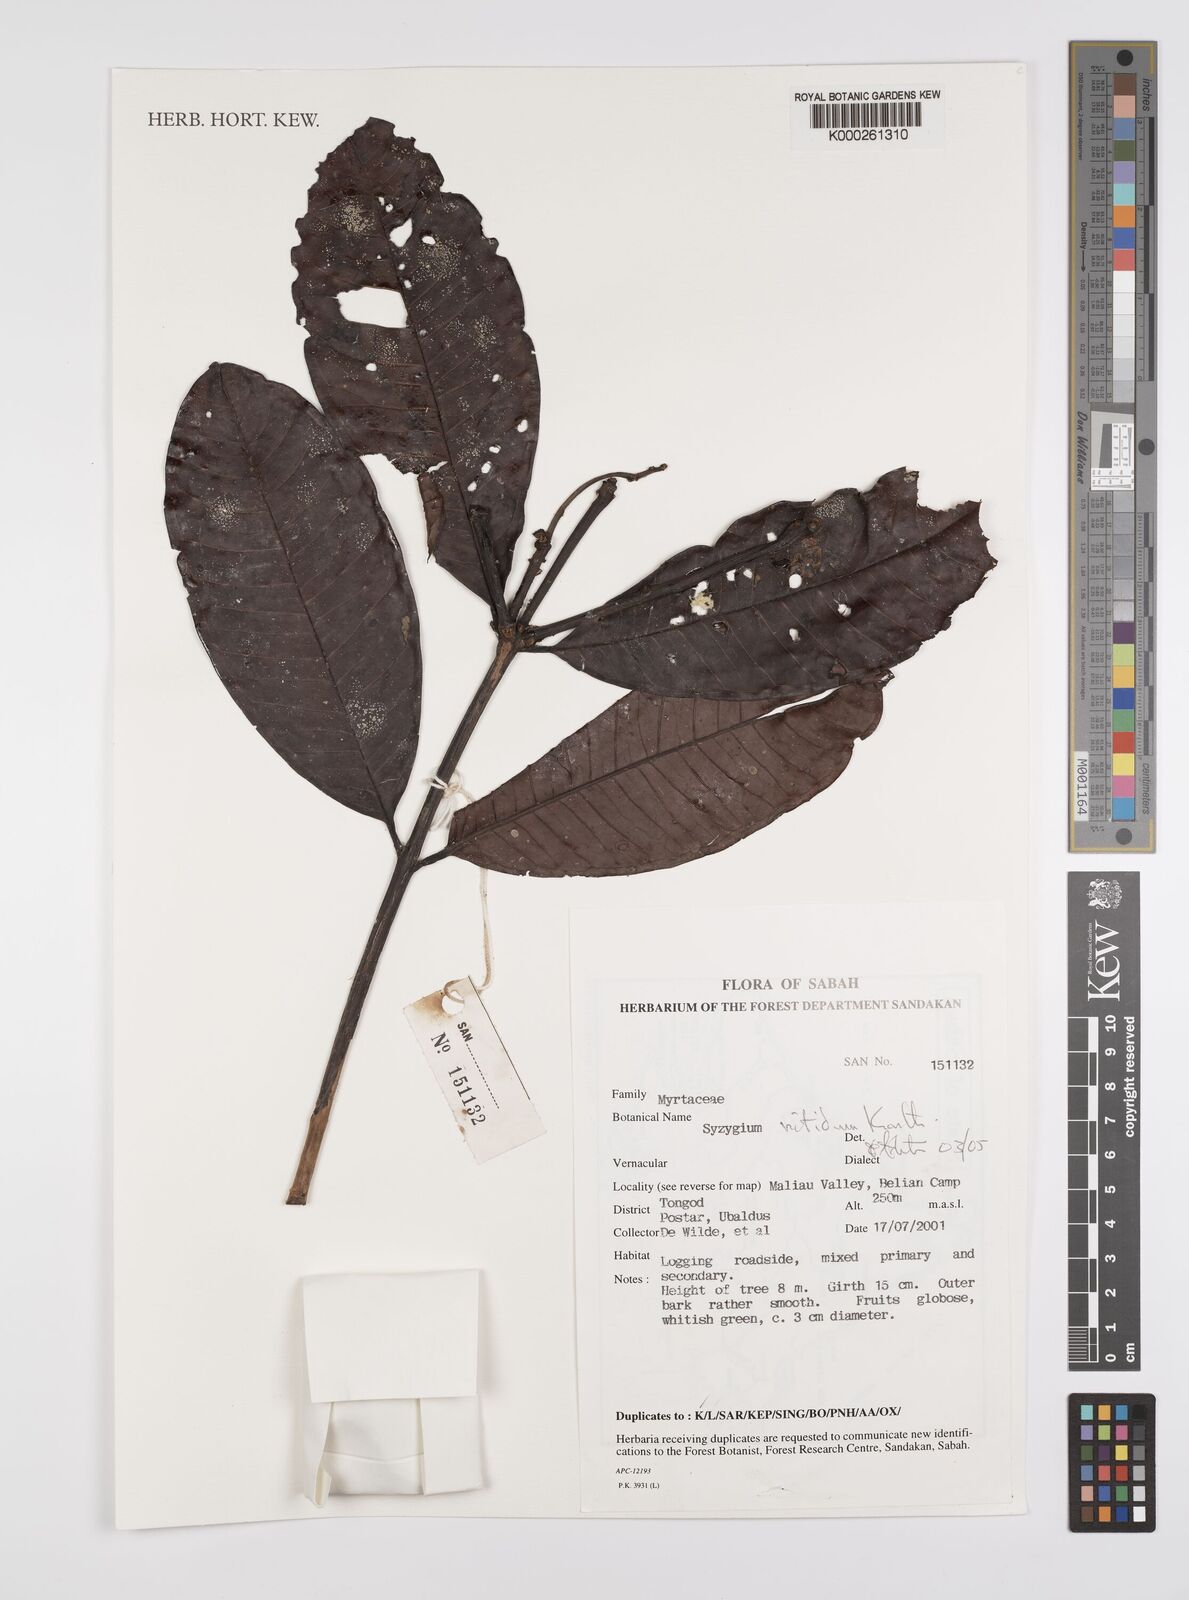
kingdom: Plantae
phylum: Tracheophyta
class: Magnoliopsida
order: Myrtales
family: Myrtaceae
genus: Syzygium
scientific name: Syzygium
